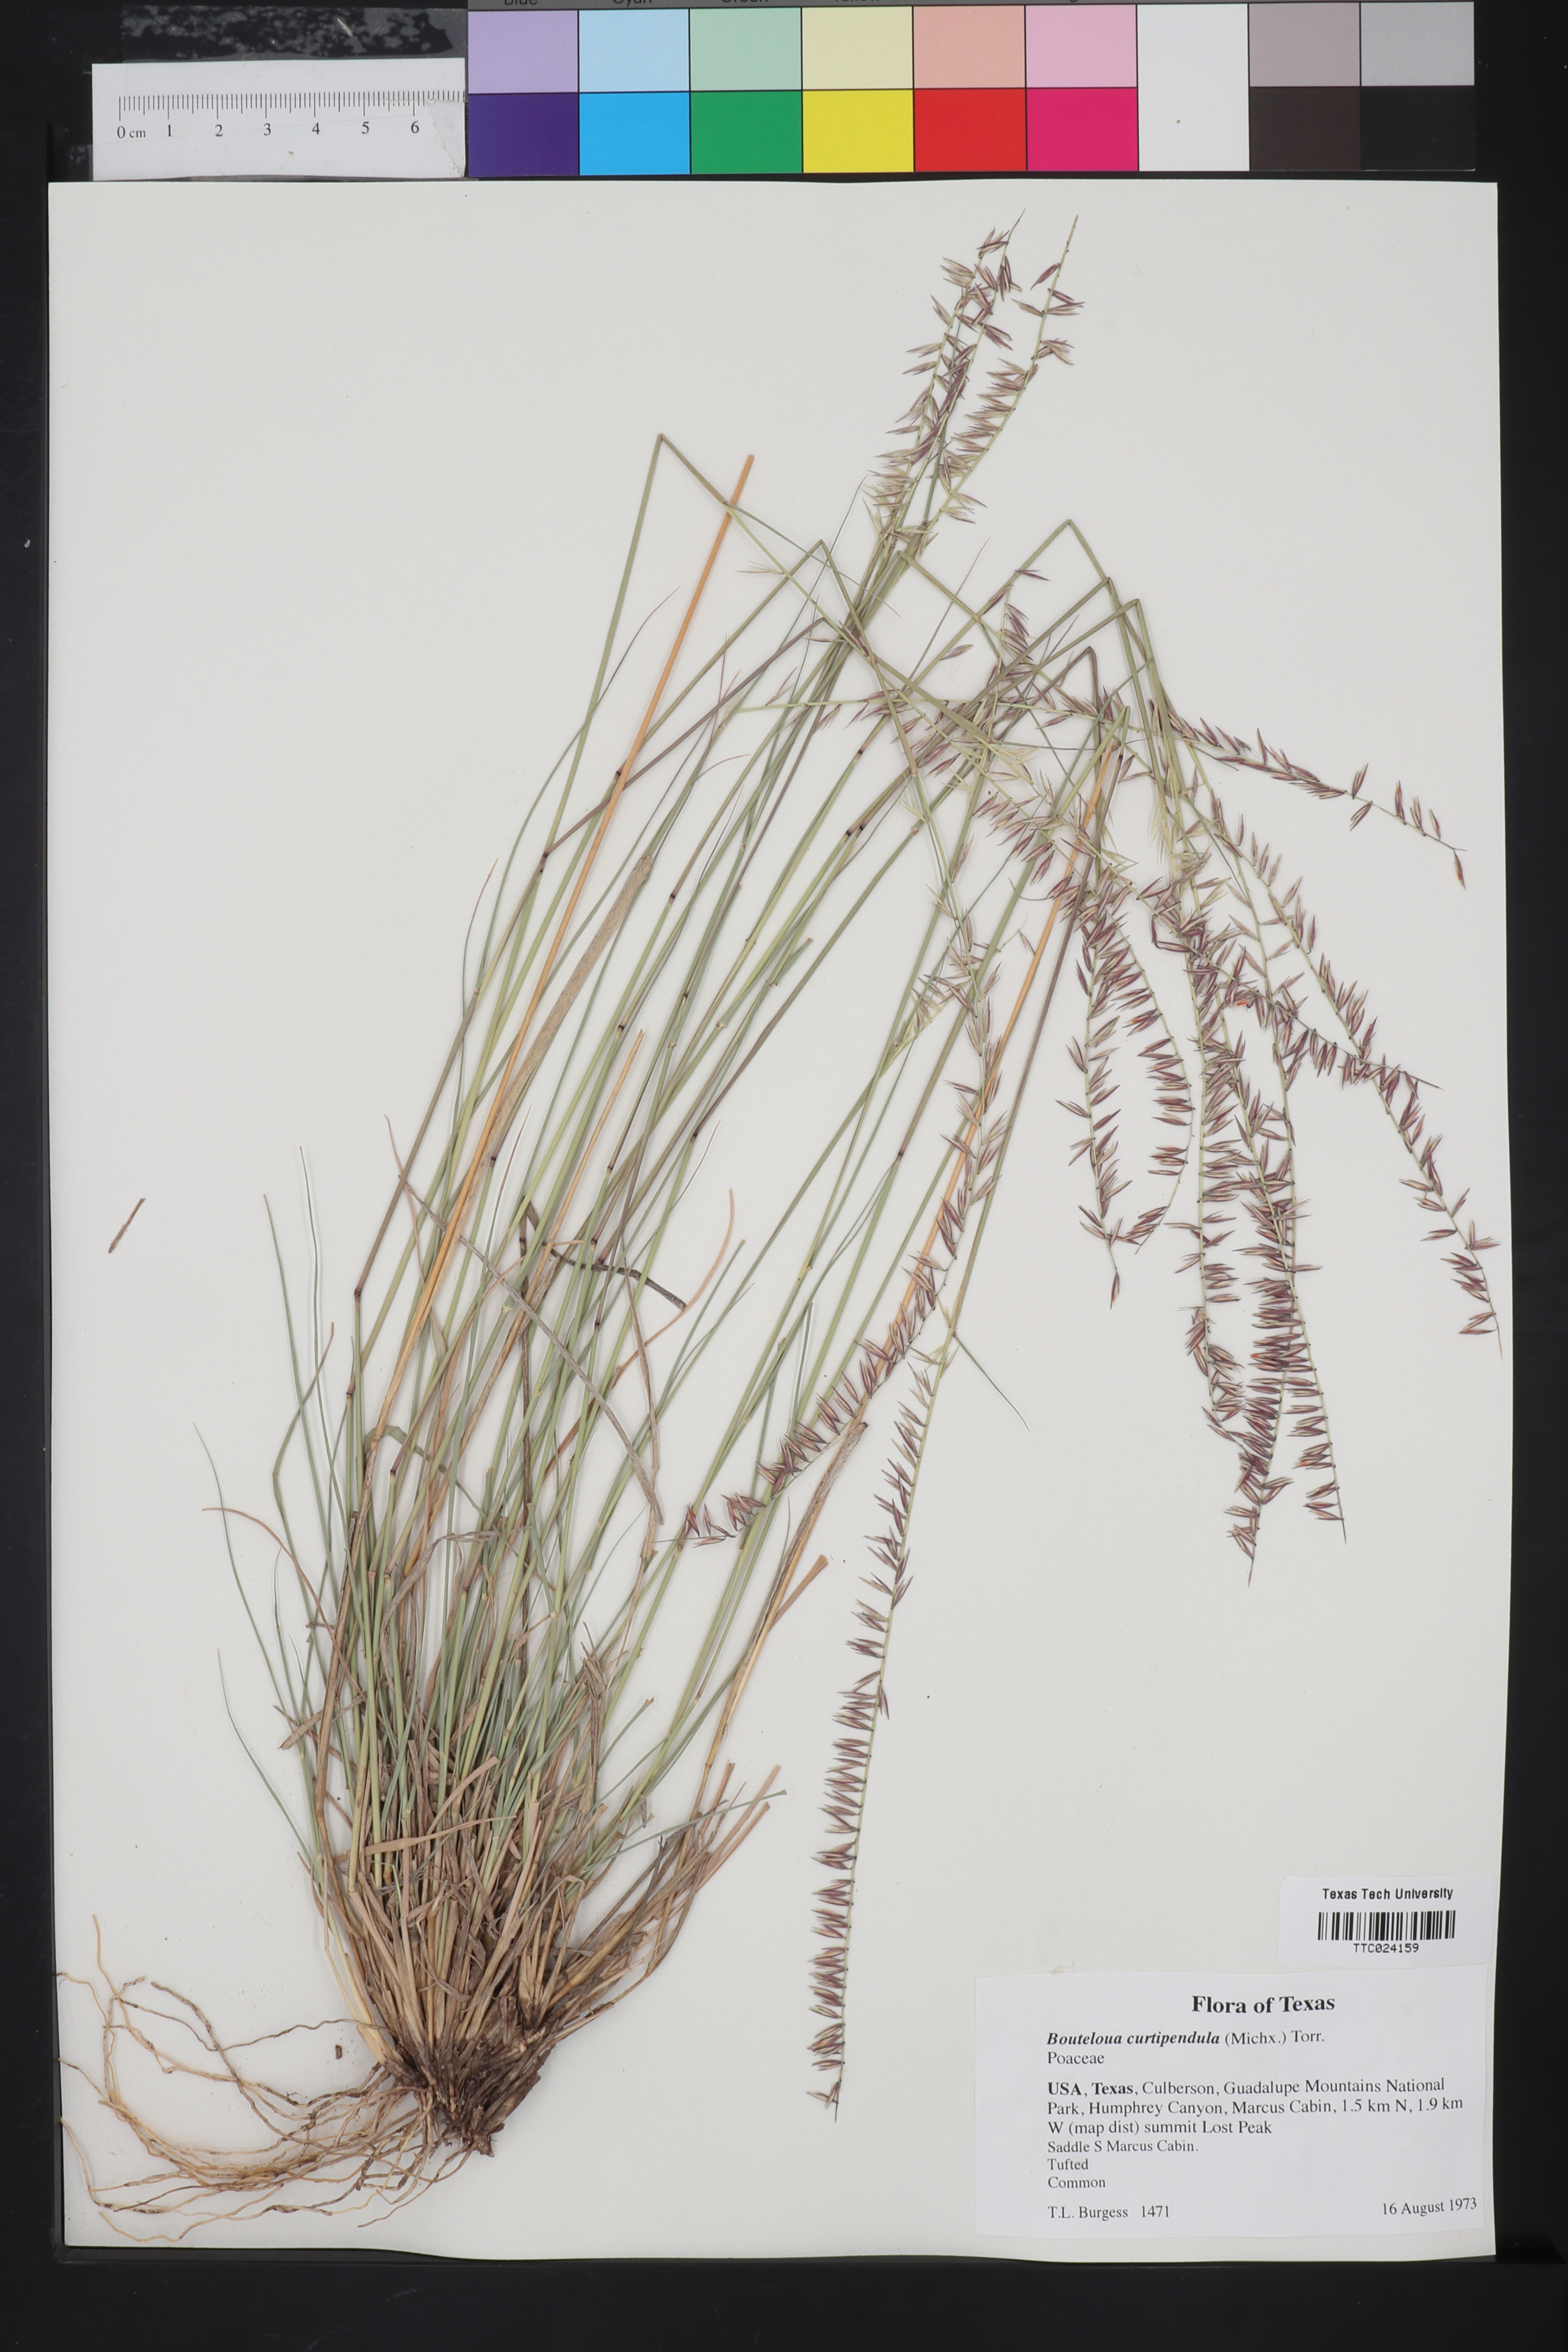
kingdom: Plantae
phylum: Tracheophyta
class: Liliopsida
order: Poales
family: Poaceae
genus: Bouteloua
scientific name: Bouteloua curtipendula
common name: Side-oats grama
